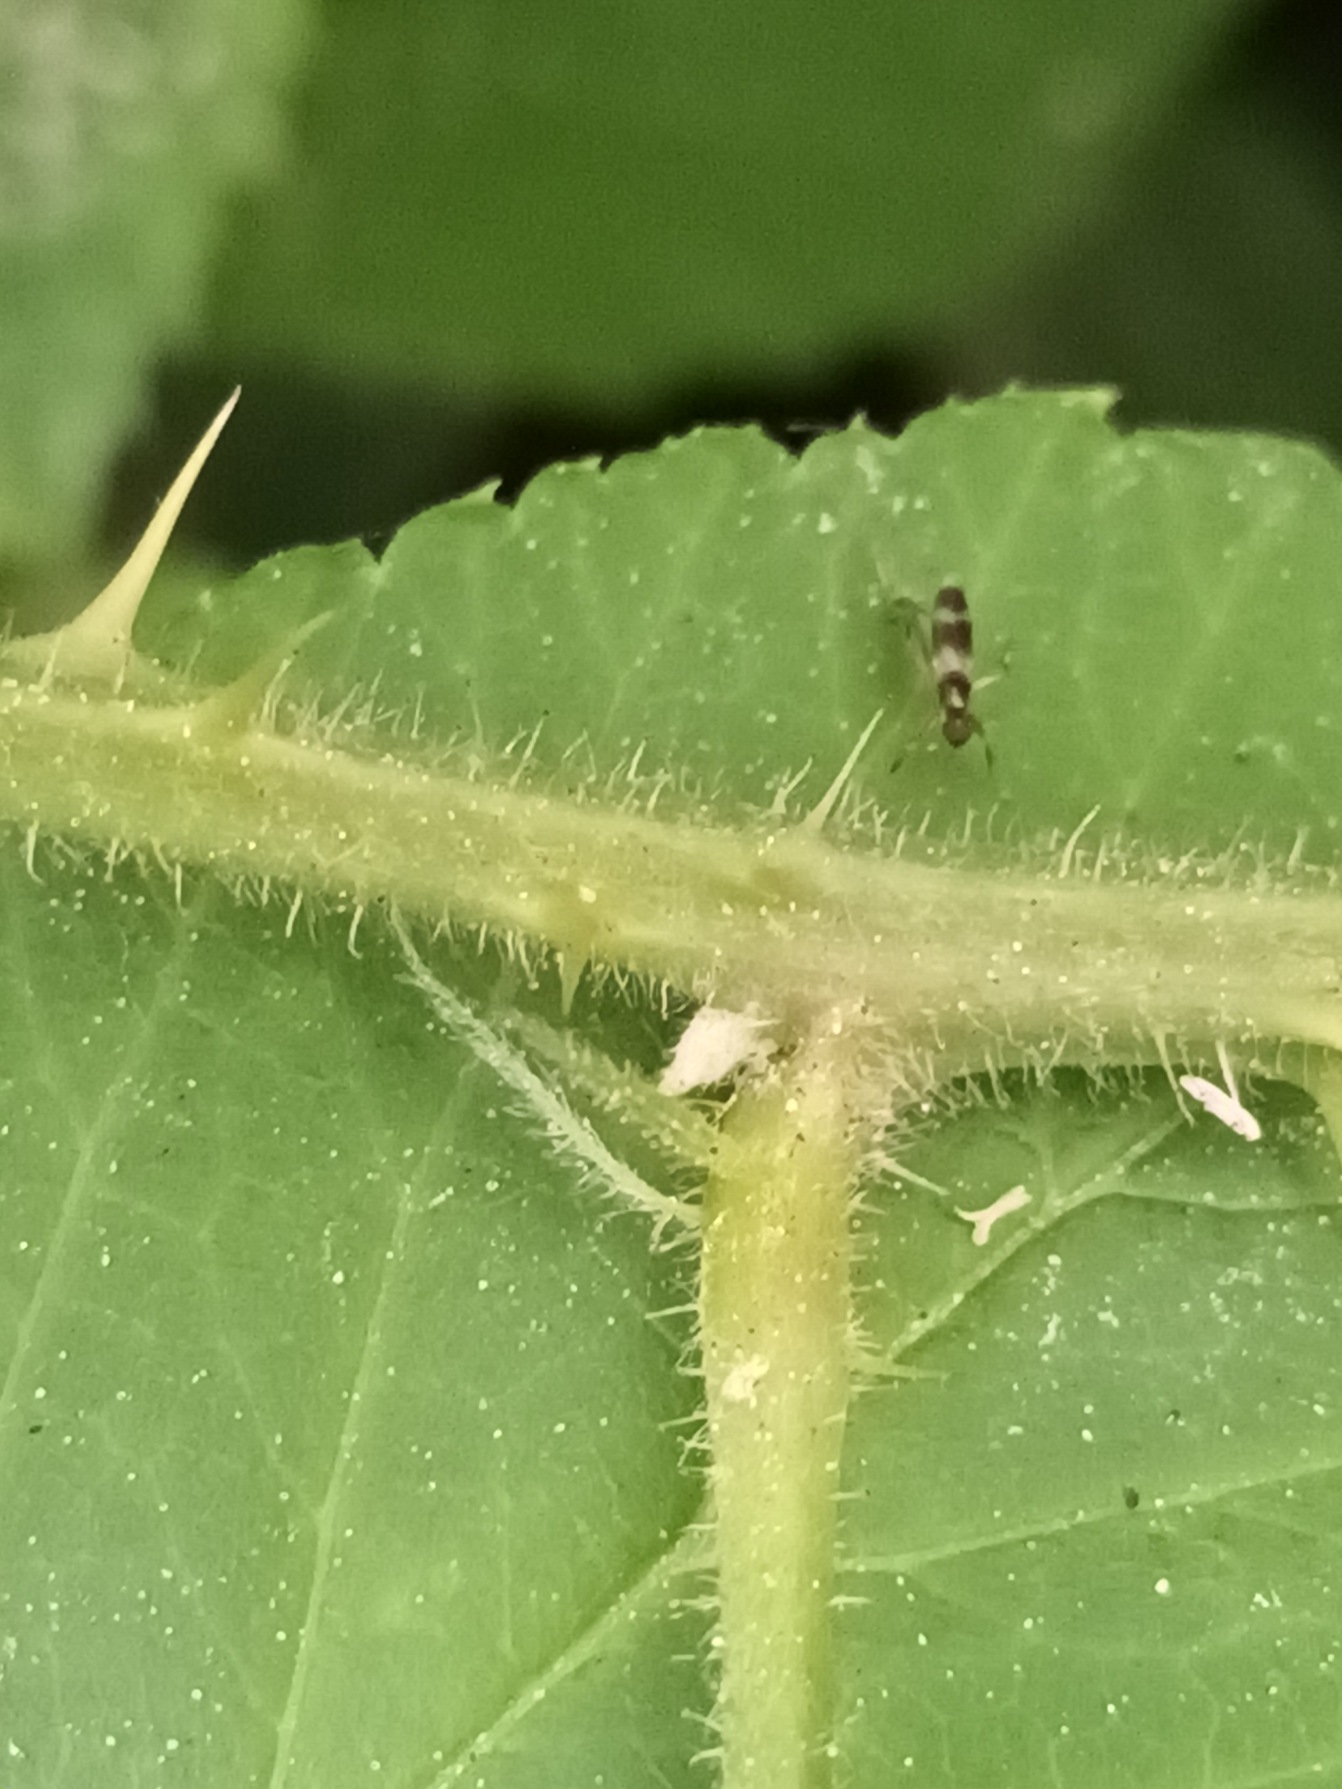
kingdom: Plantae
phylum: Tracheophyta
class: Magnoliopsida
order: Rosales
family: Rosaceae
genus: Rubus
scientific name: Rubus radula
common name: Rasperu brombær
